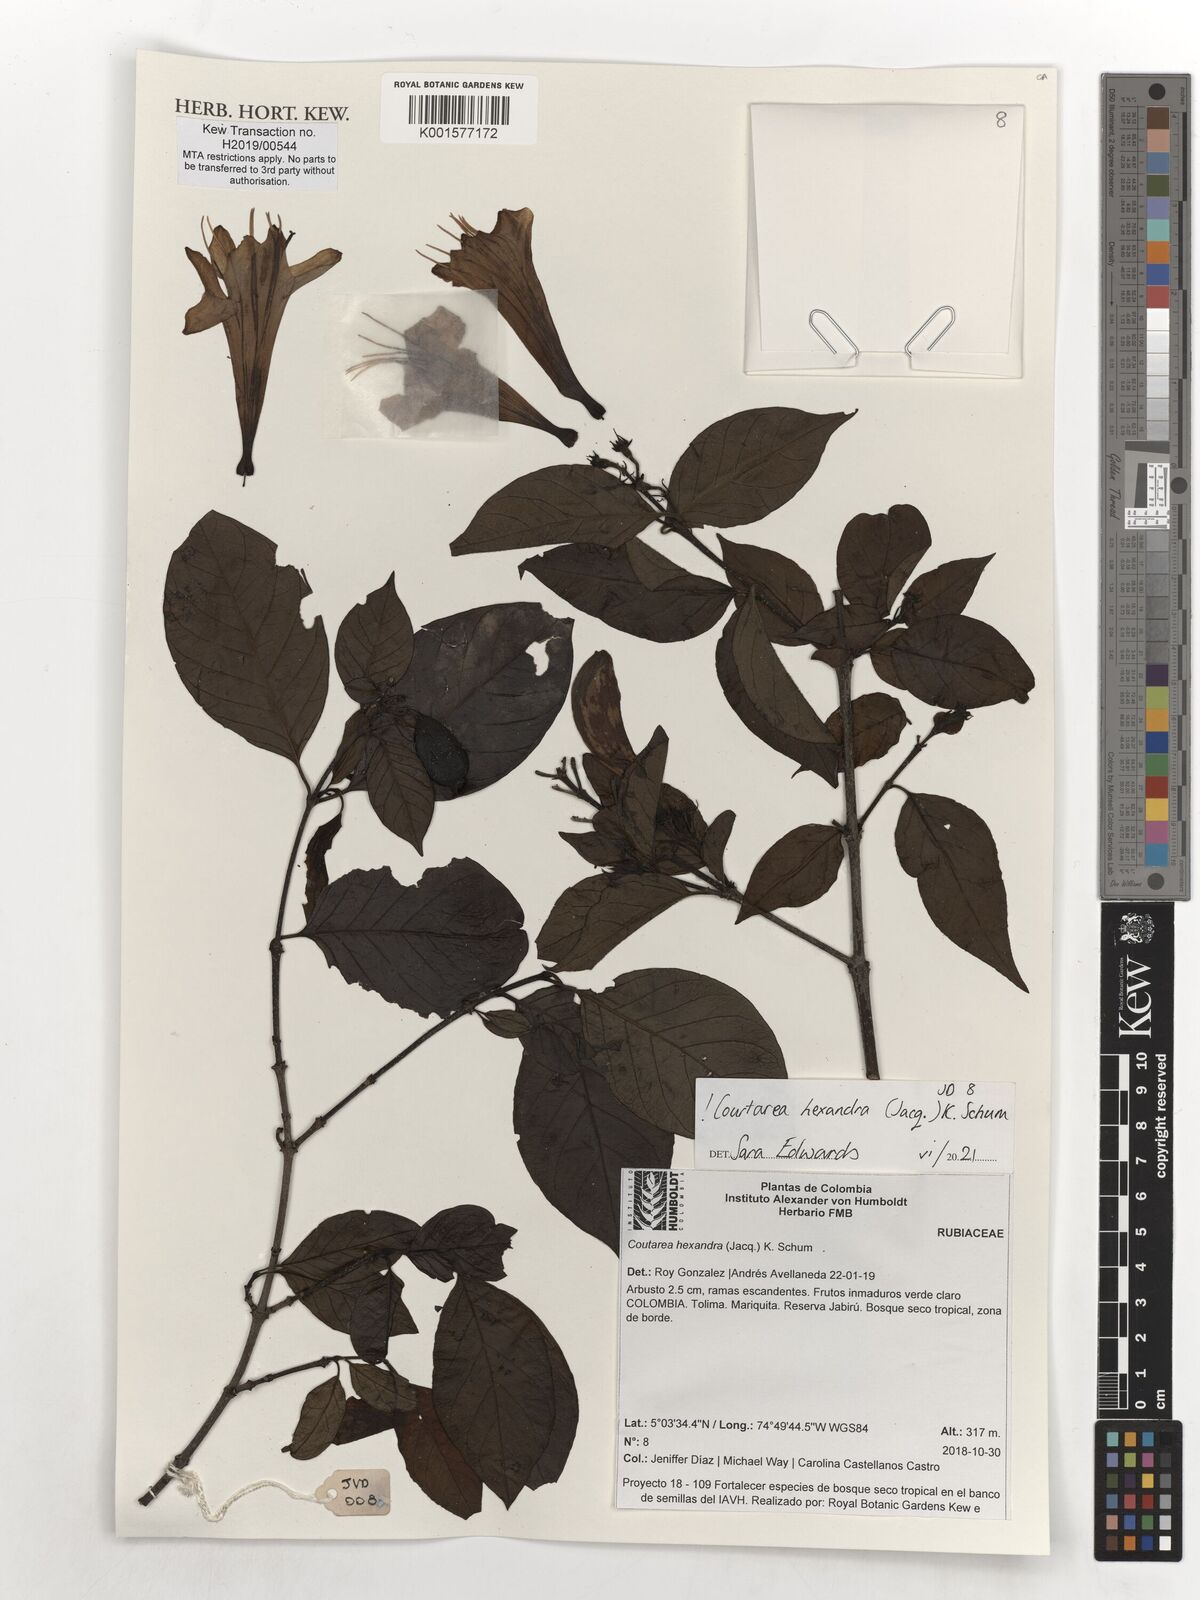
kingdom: Plantae
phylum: Tracheophyta
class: Magnoliopsida
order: Gentianales
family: Rubiaceae
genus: Coutarea
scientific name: Coutarea hexandra
